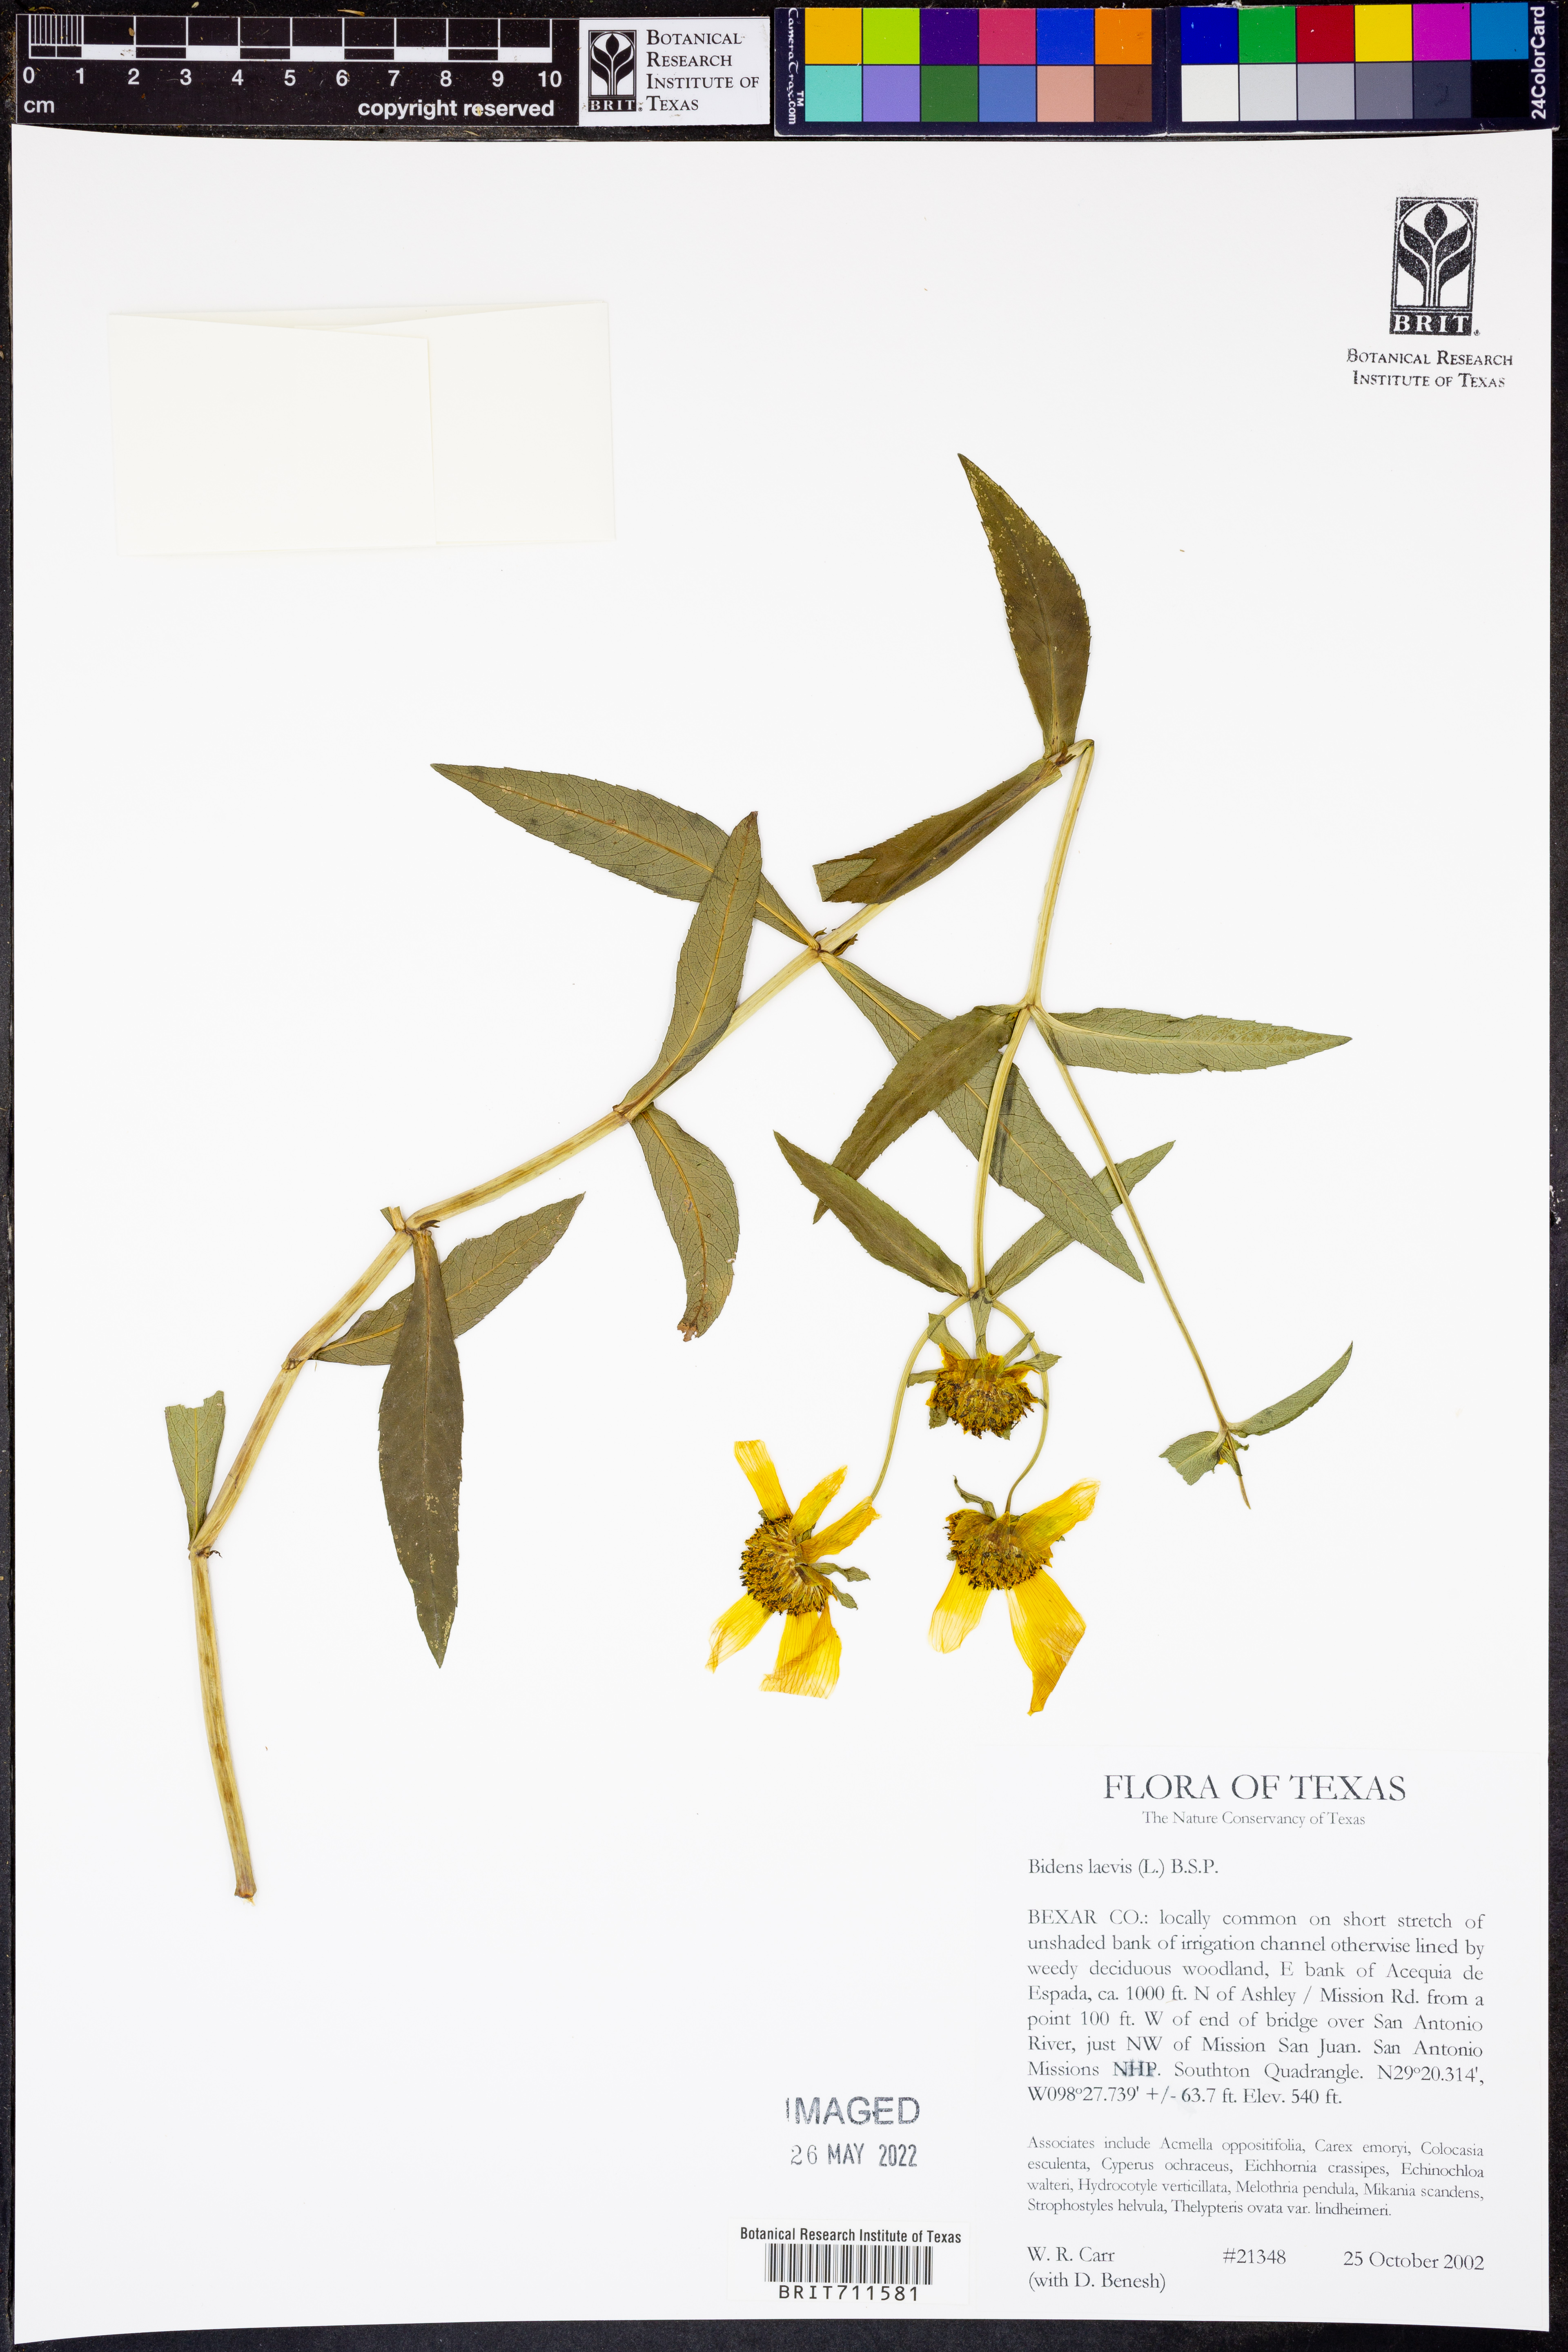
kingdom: Plantae
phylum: Tracheophyta
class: Magnoliopsida
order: Asterales
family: Asteraceae
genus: Bidens
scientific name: Bidens laevis
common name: Larger bur-marigold
